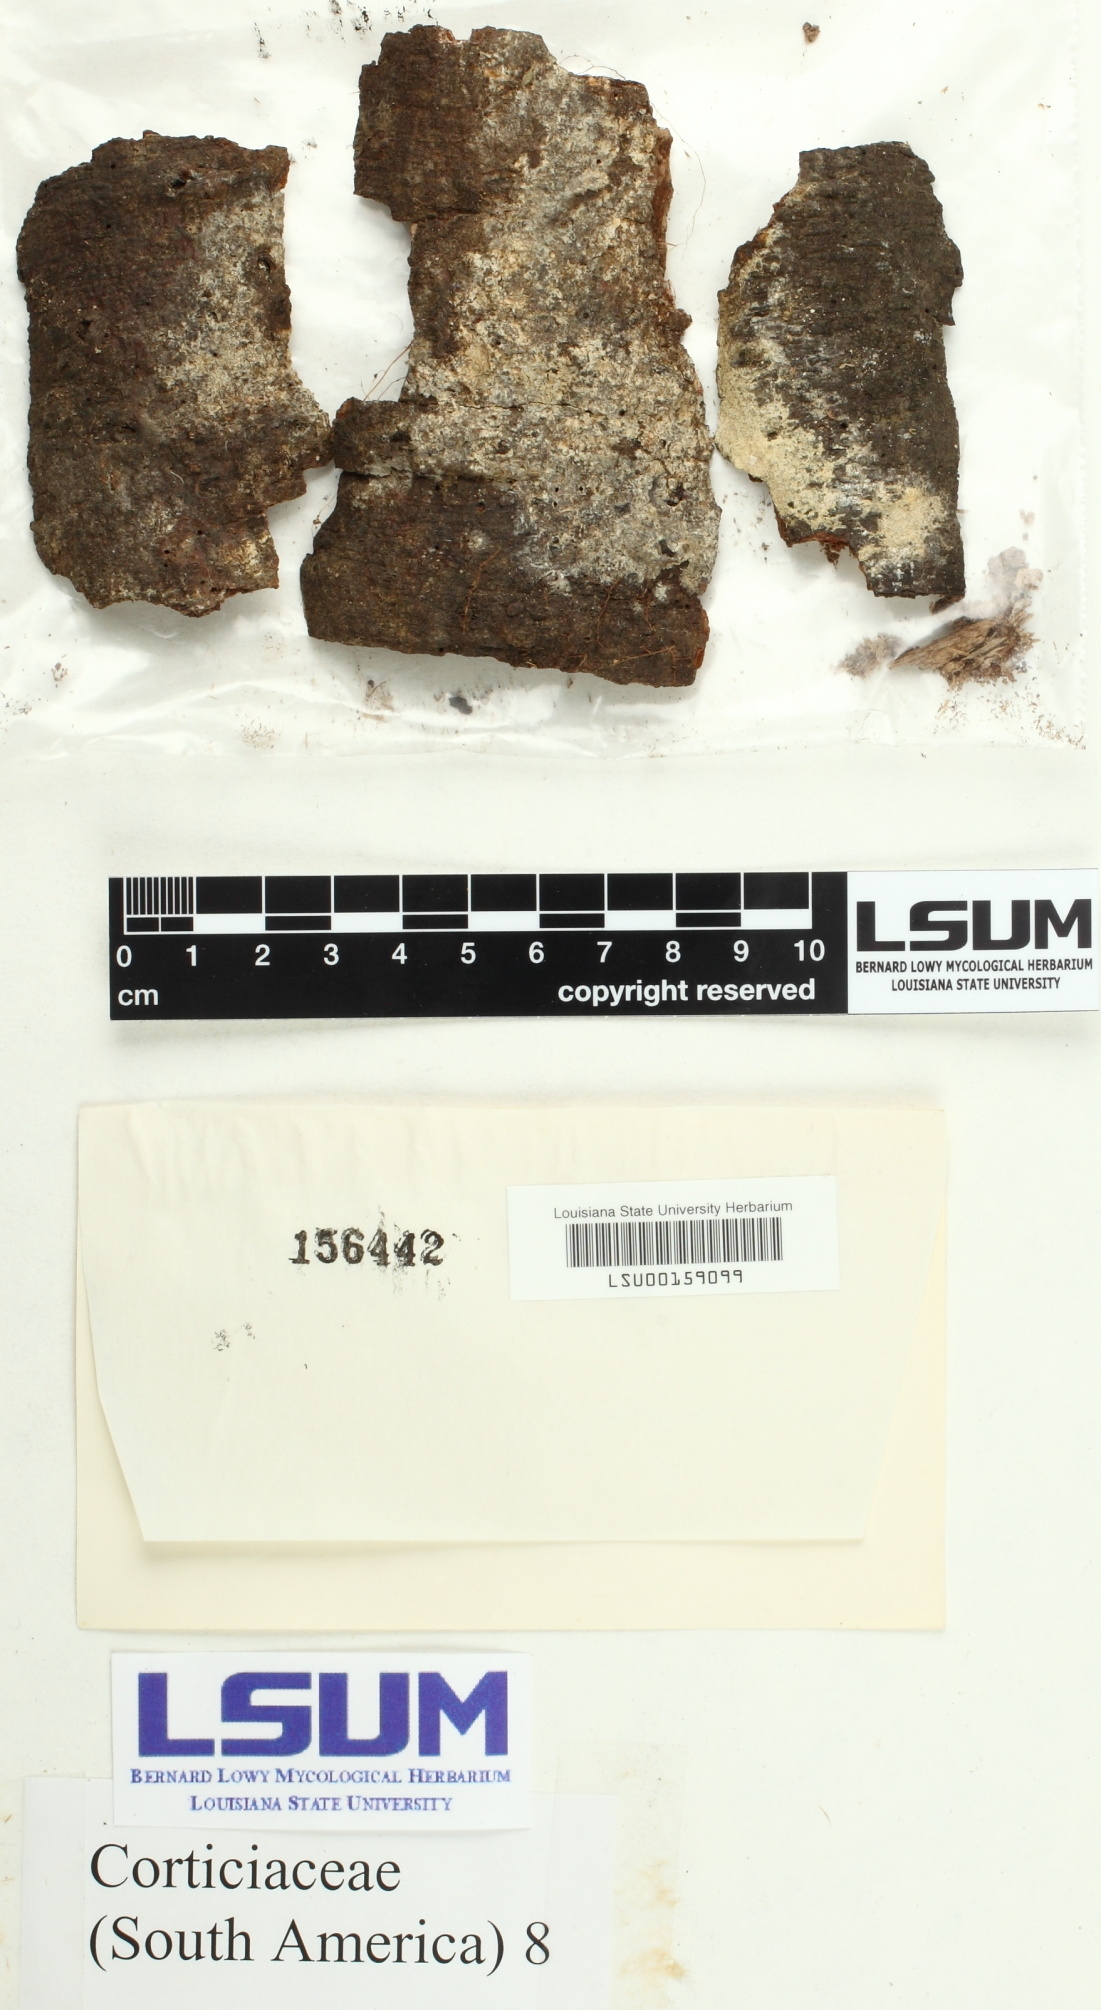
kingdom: Fungi
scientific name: Fungi
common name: Fungi
